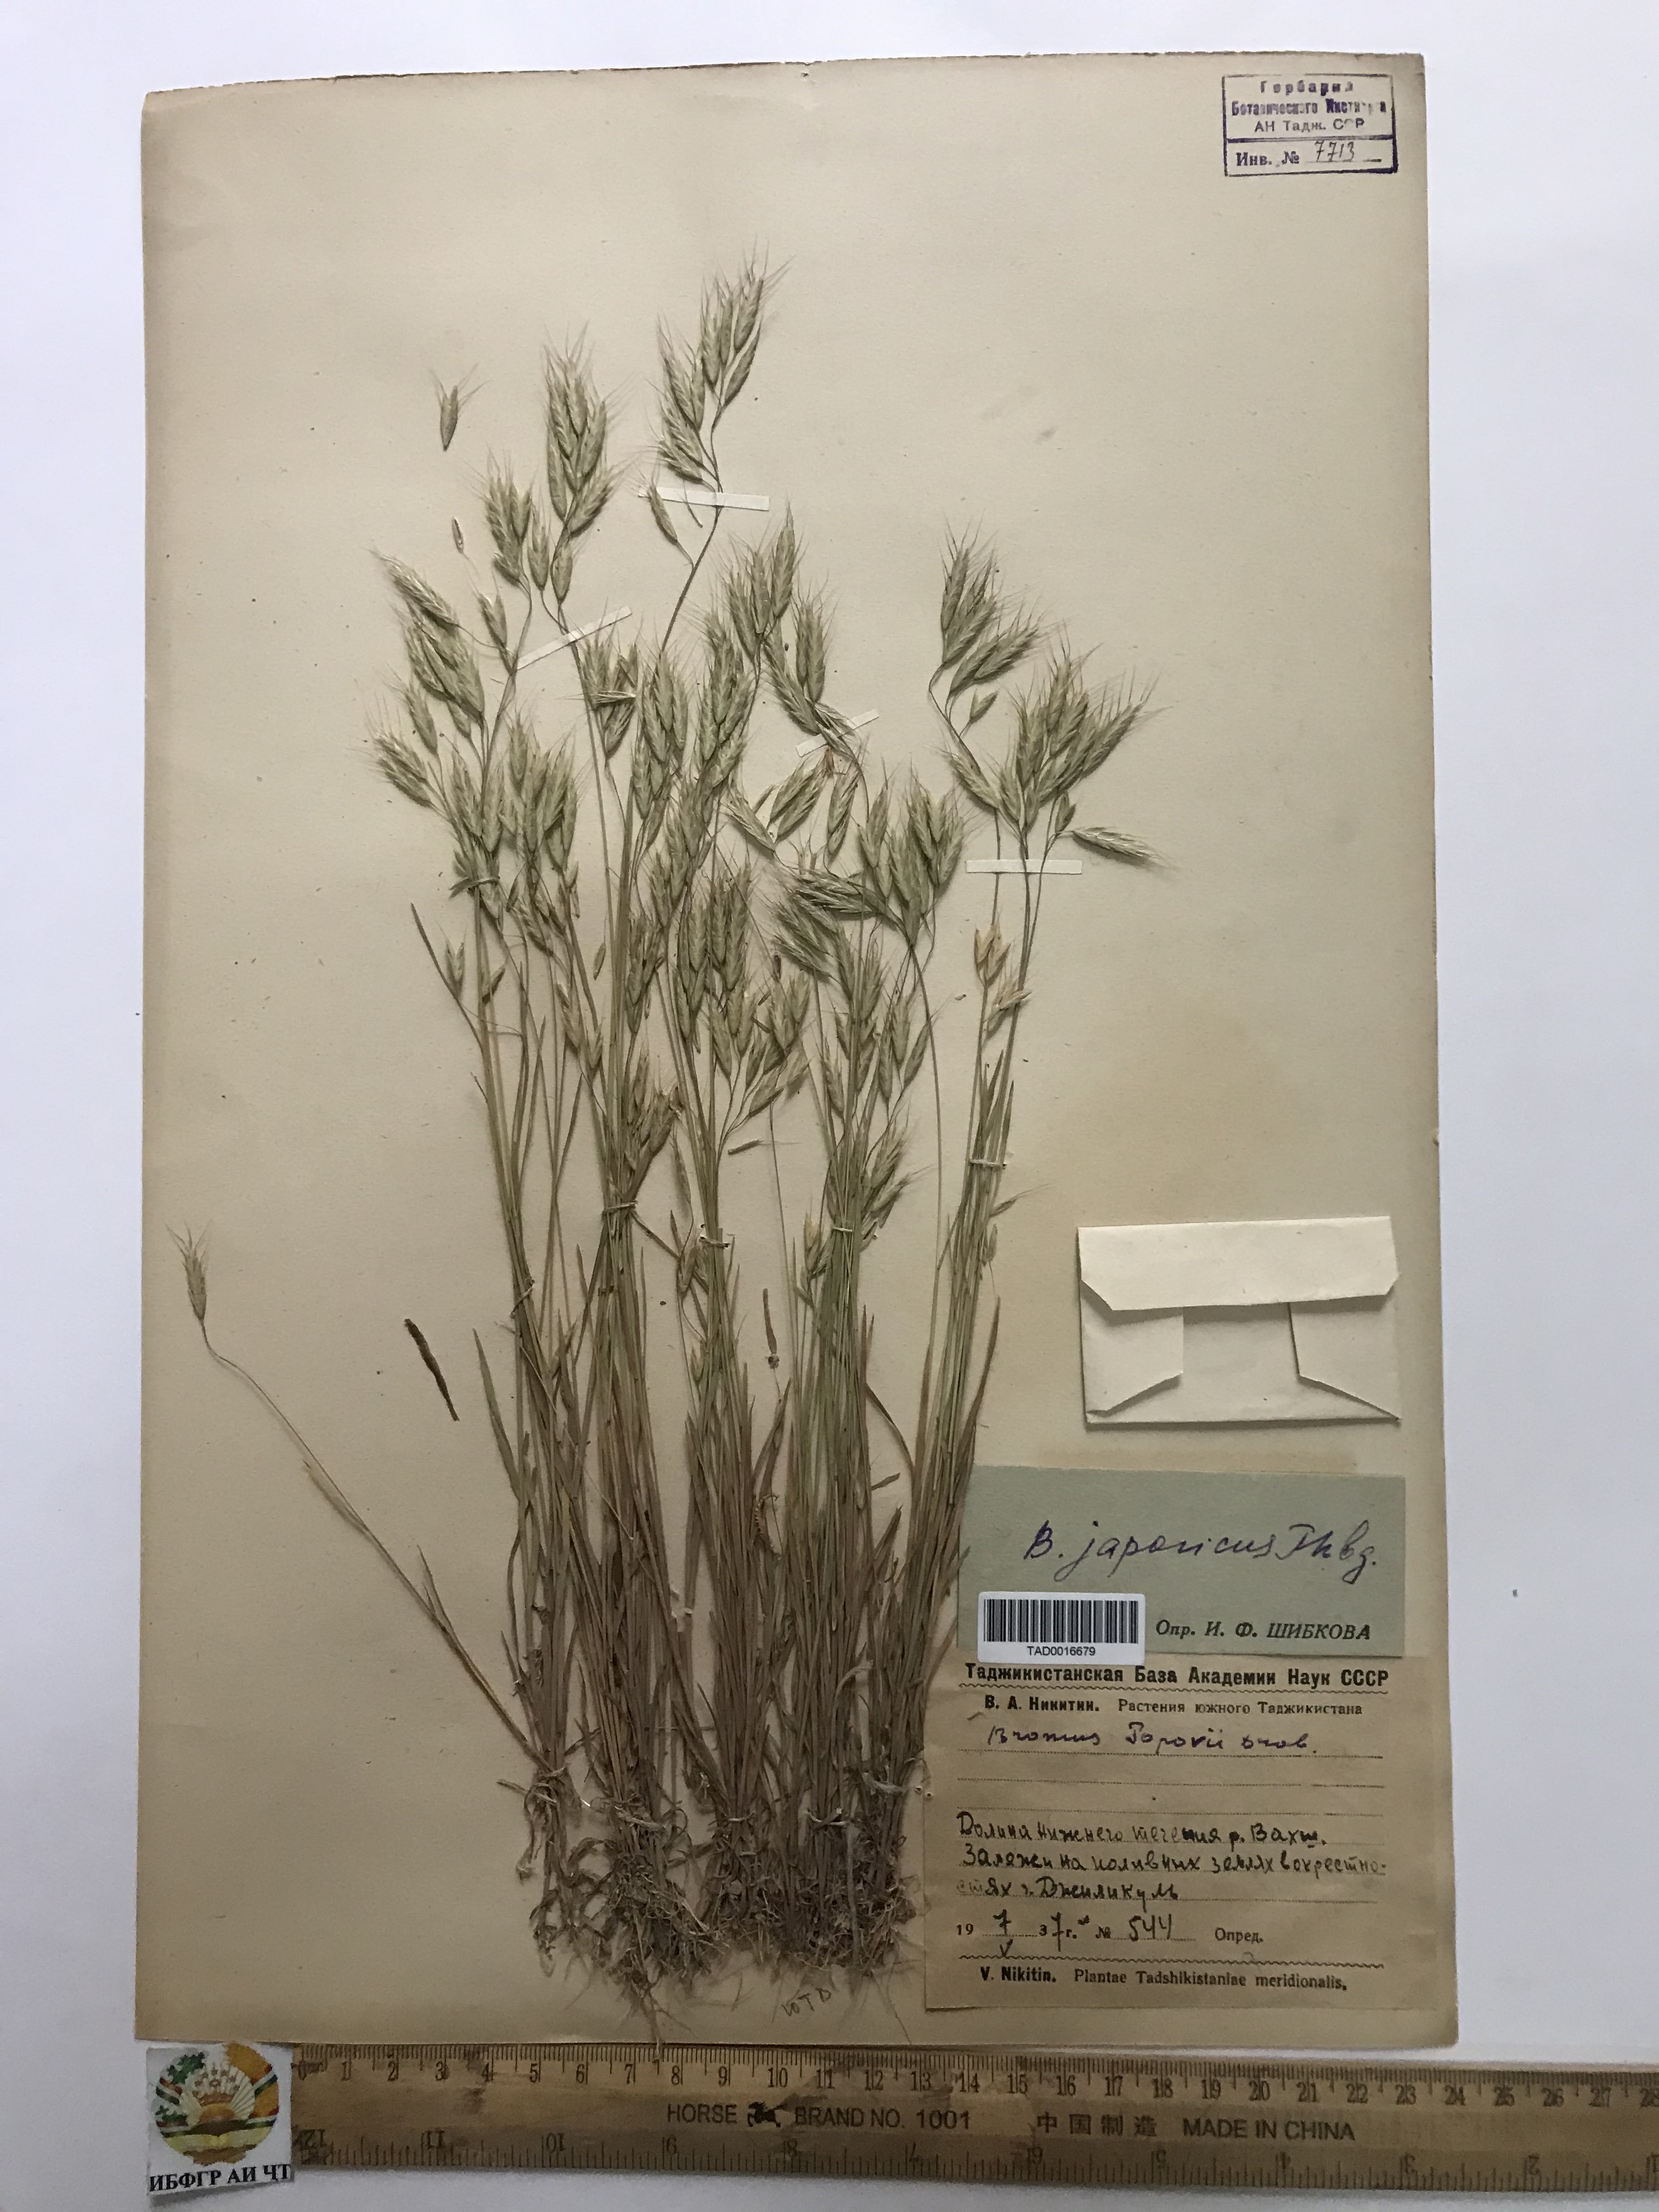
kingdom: Plantae
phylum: Tracheophyta
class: Liliopsida
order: Poales
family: Poaceae
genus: Bromus
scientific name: Bromus japonicus
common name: Japanese brome
